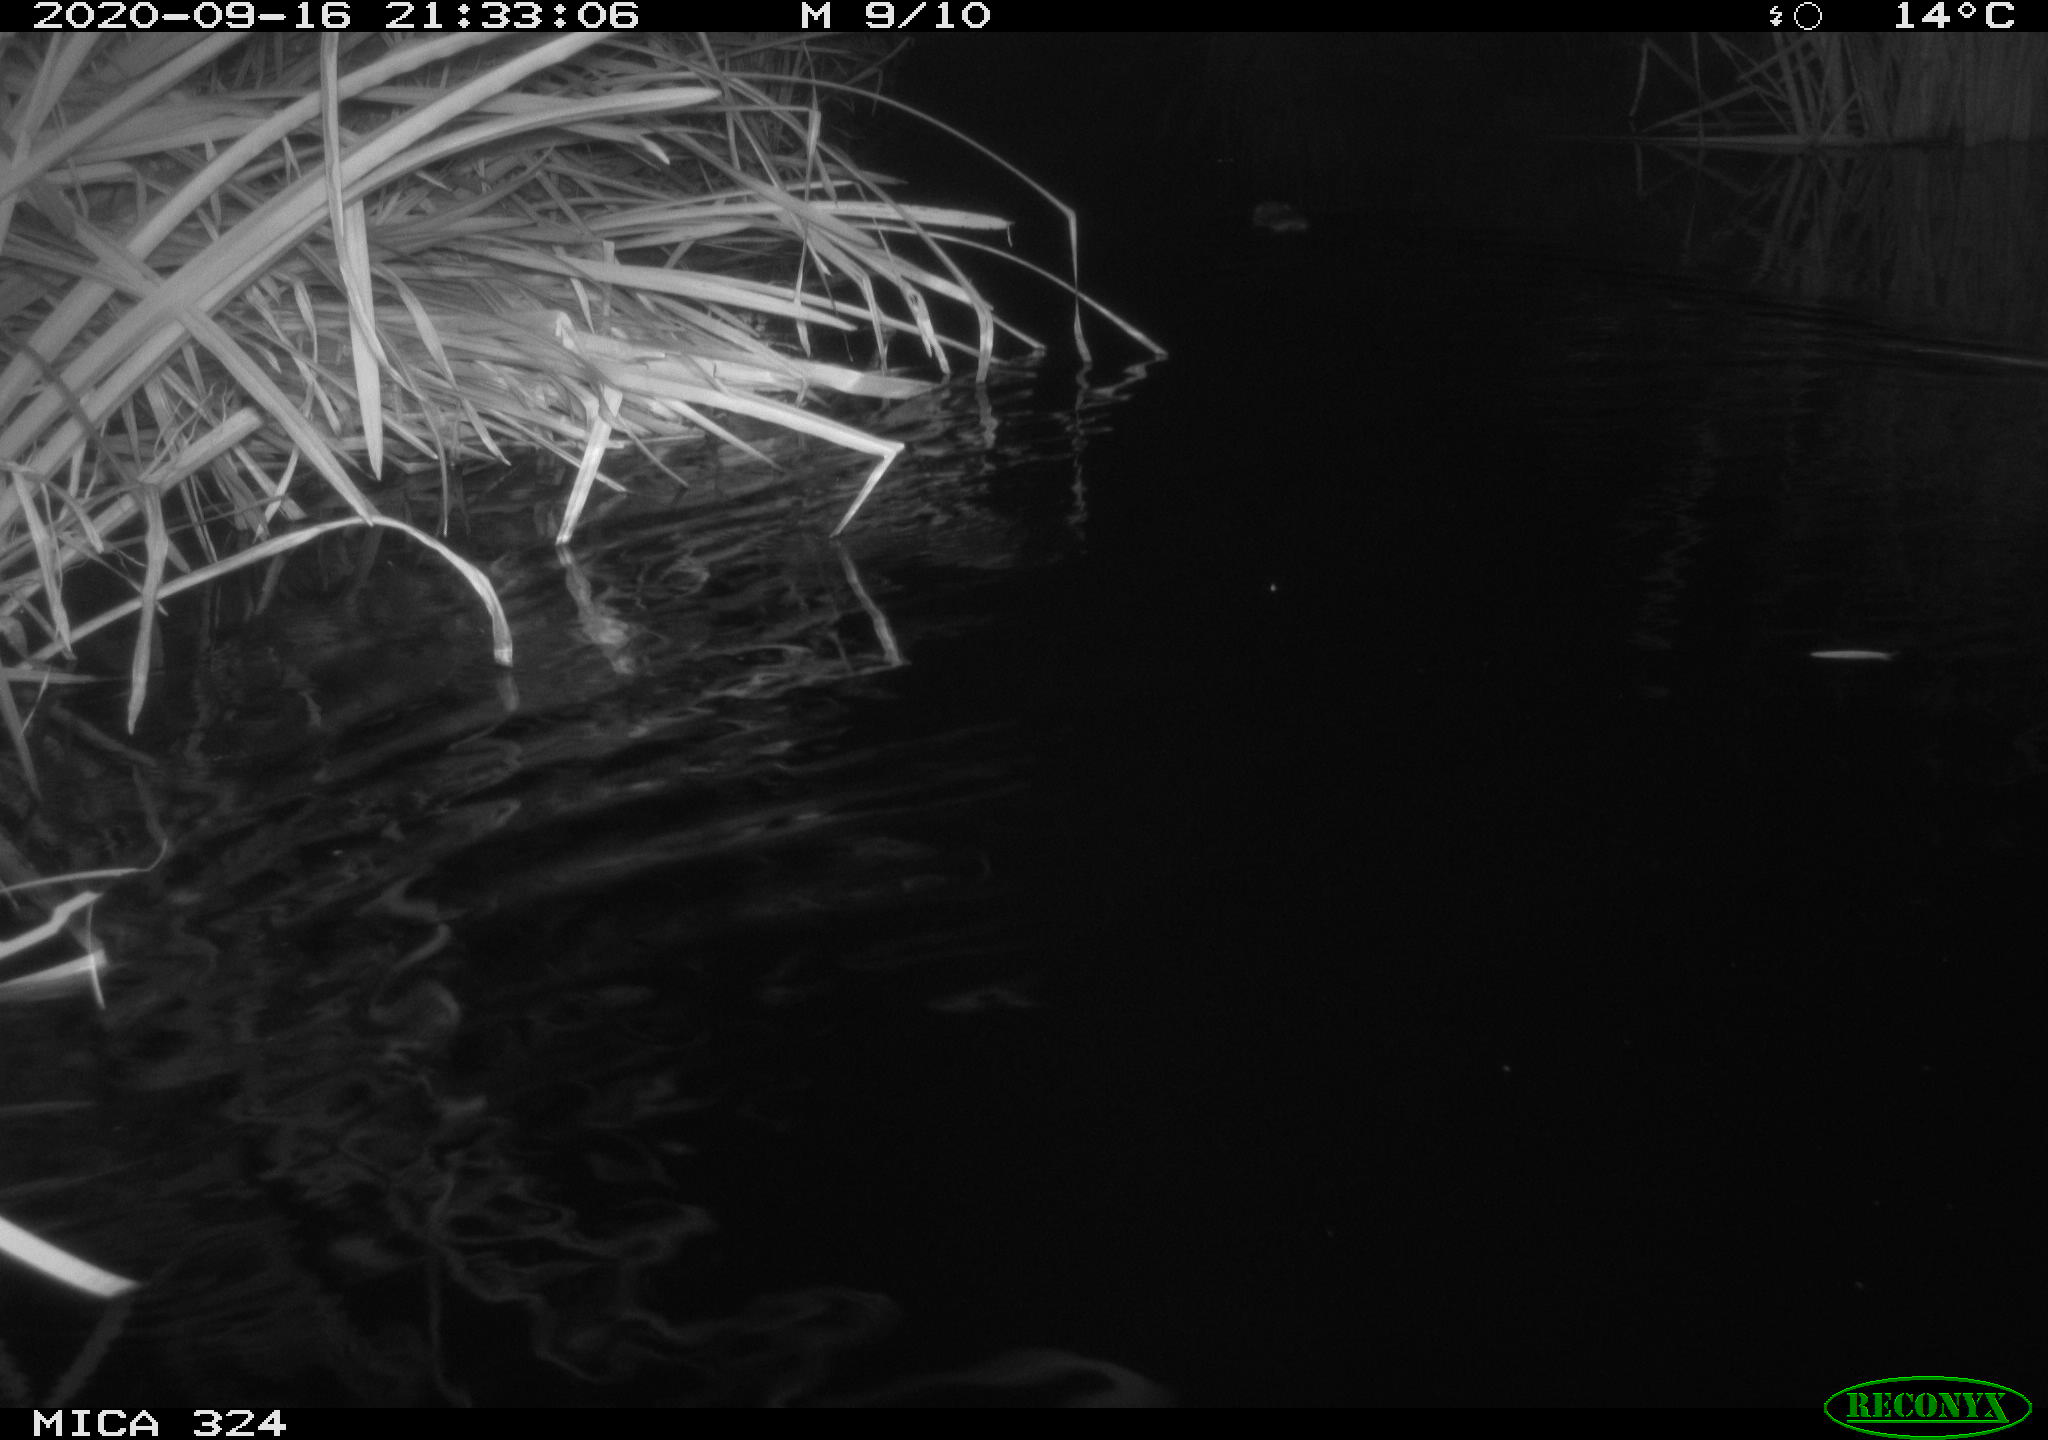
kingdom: Animalia
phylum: Chordata
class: Mammalia
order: Rodentia
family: Cricetidae
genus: Ondatra
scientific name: Ondatra zibethicus
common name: Muskrat
